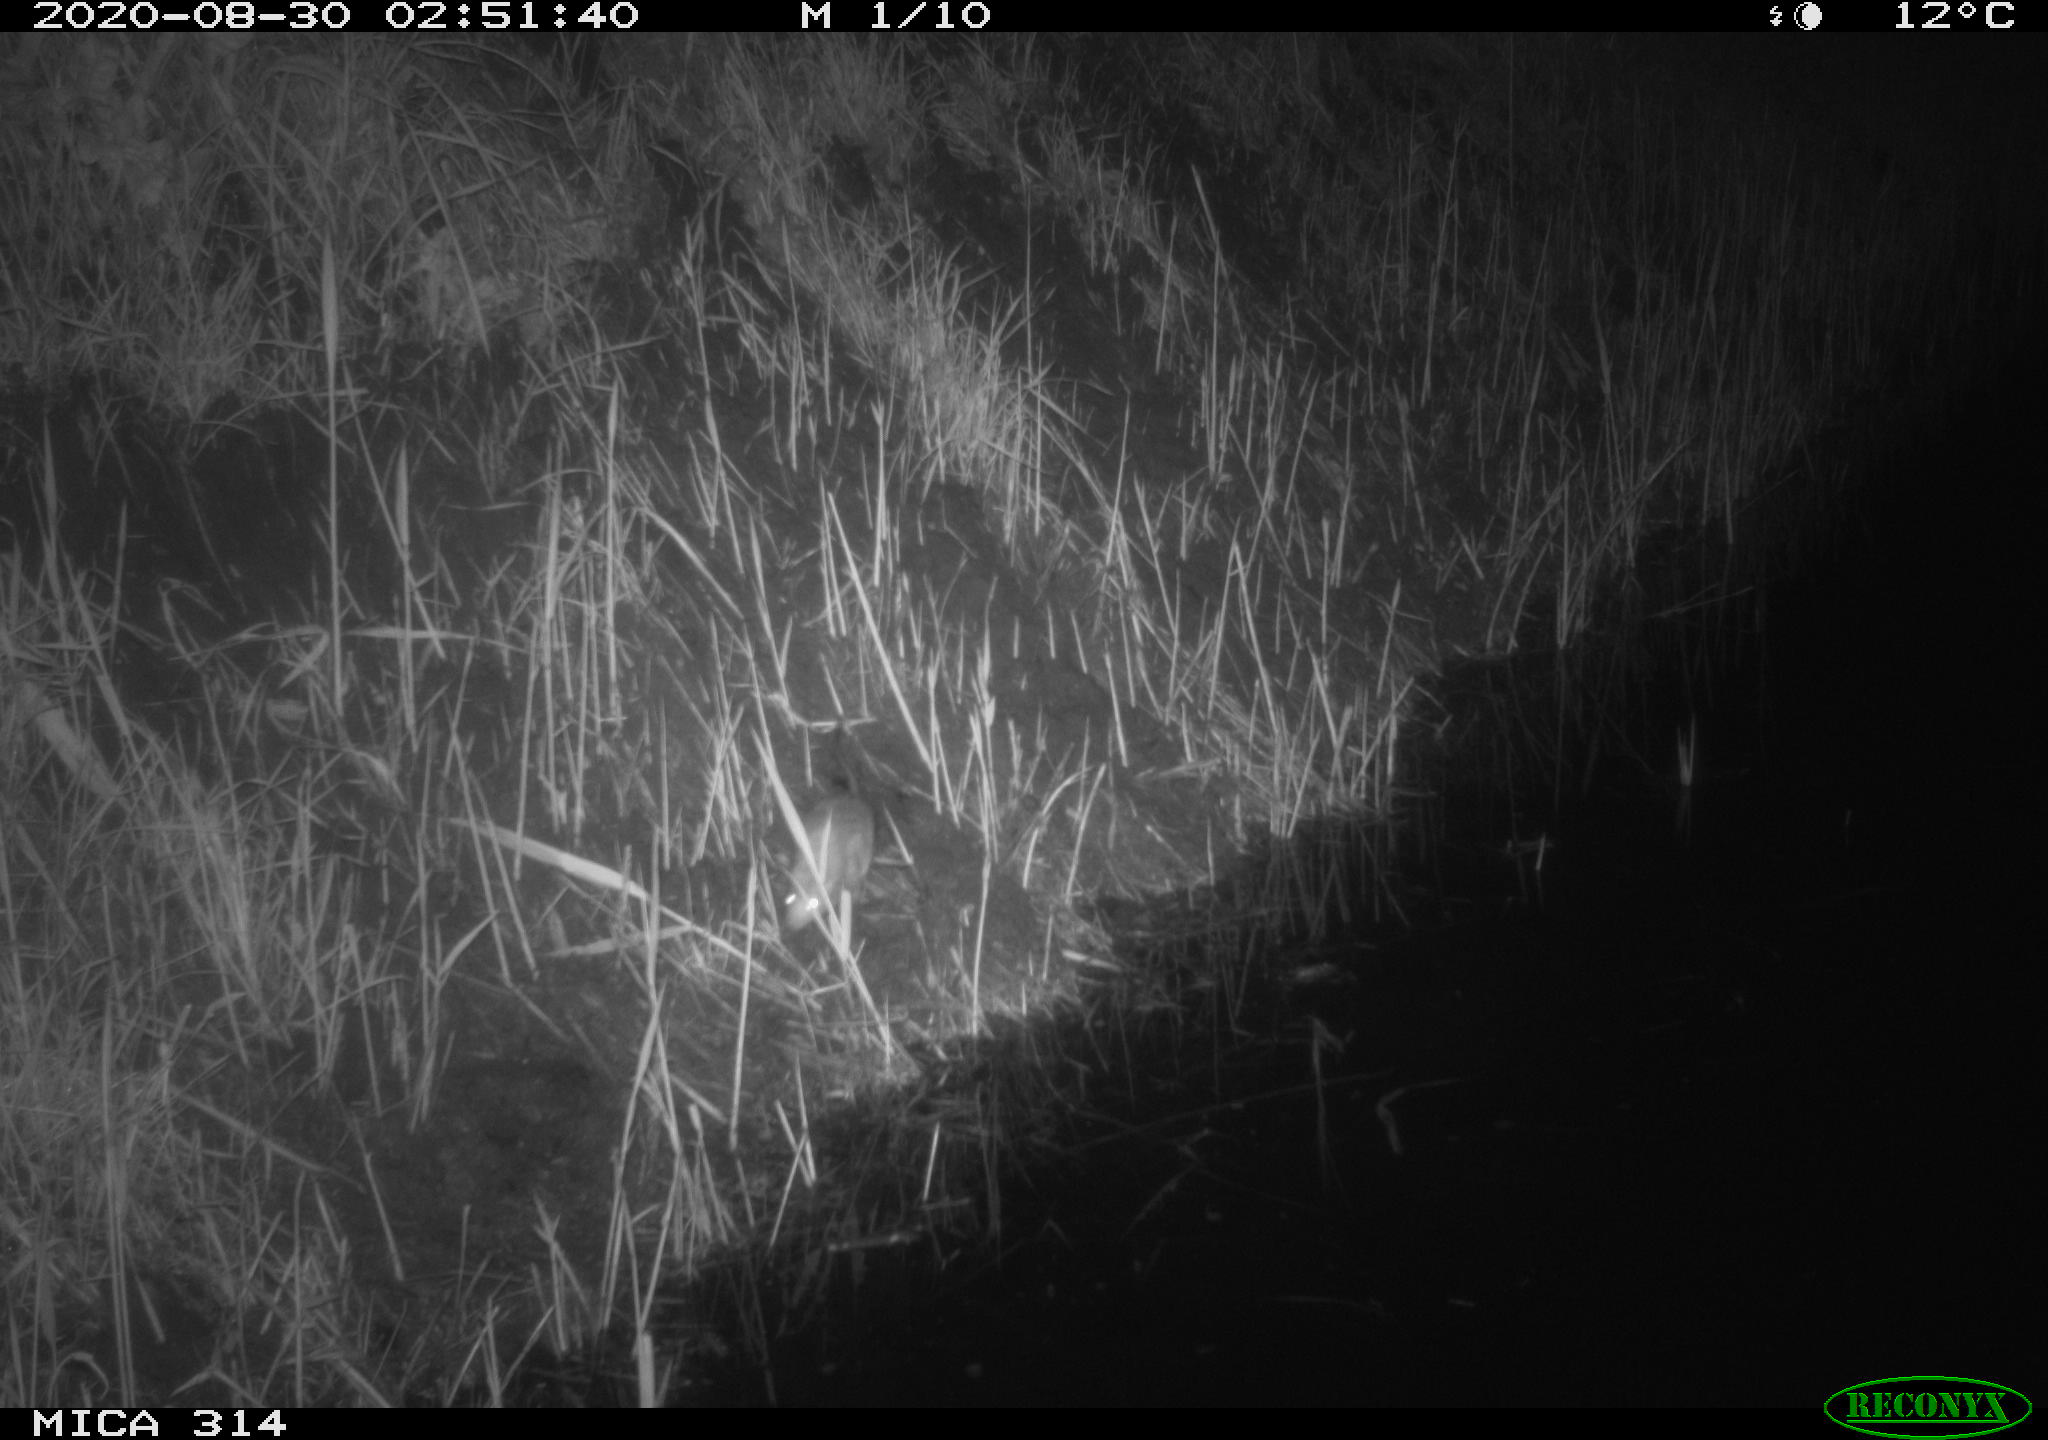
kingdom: Animalia
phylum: Chordata
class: Mammalia
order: Rodentia
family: Muridae
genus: Rattus
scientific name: Rattus norvegicus
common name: Brown rat
